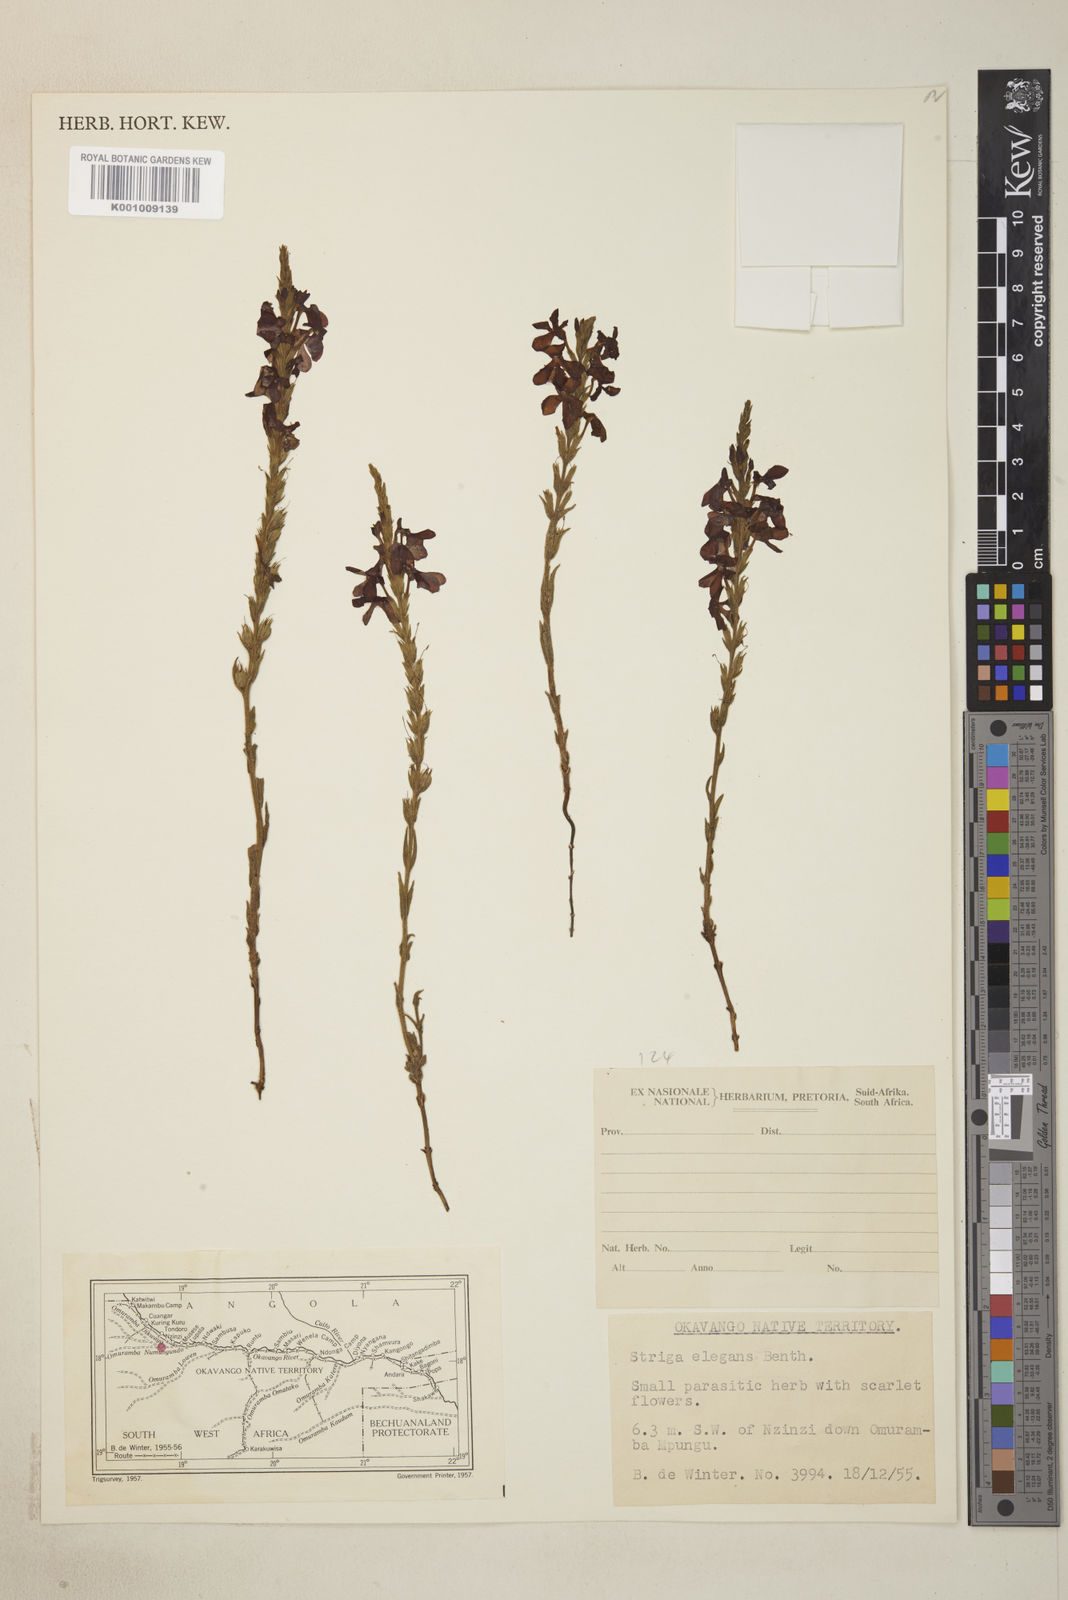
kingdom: Plantae
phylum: Tracheophyta
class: Magnoliopsida
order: Lamiales
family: Orobanchaceae
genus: Striga
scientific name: Striga elegans
